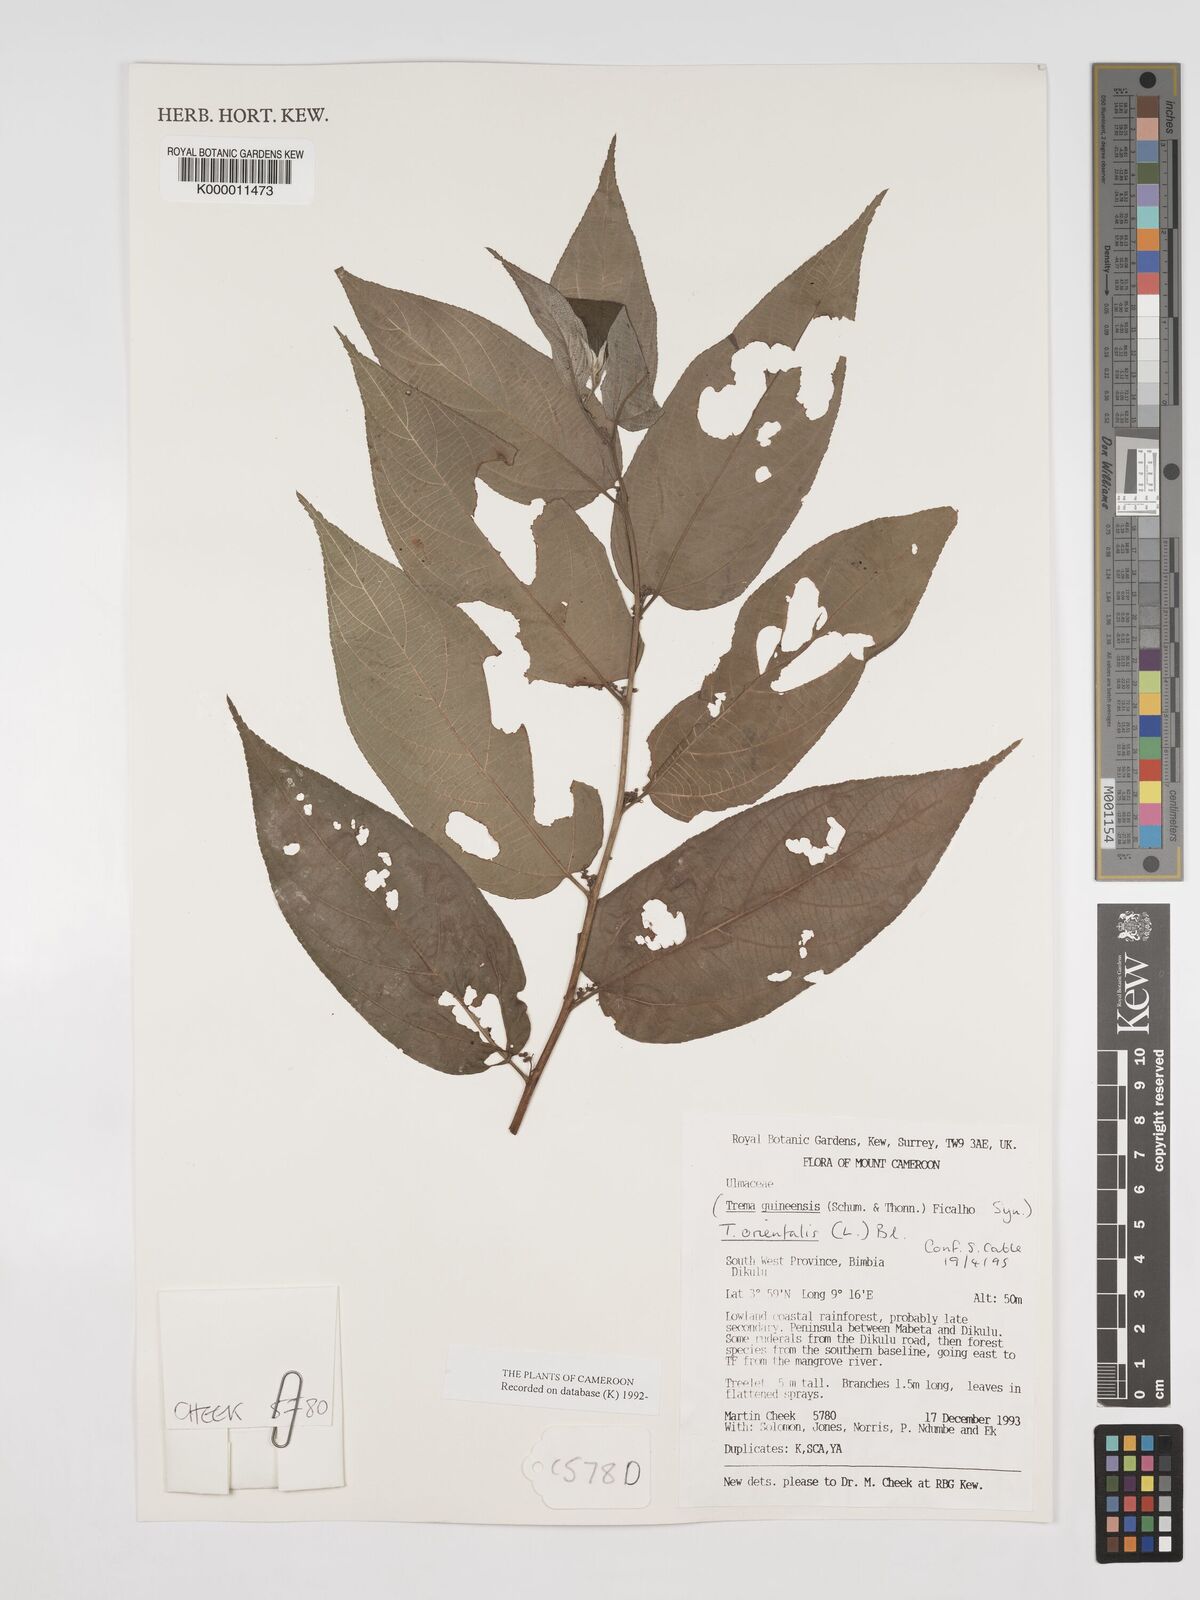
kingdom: Plantae
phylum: Tracheophyta
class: Magnoliopsida
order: Rosales
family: Cannabaceae
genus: Trema
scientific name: Trema
